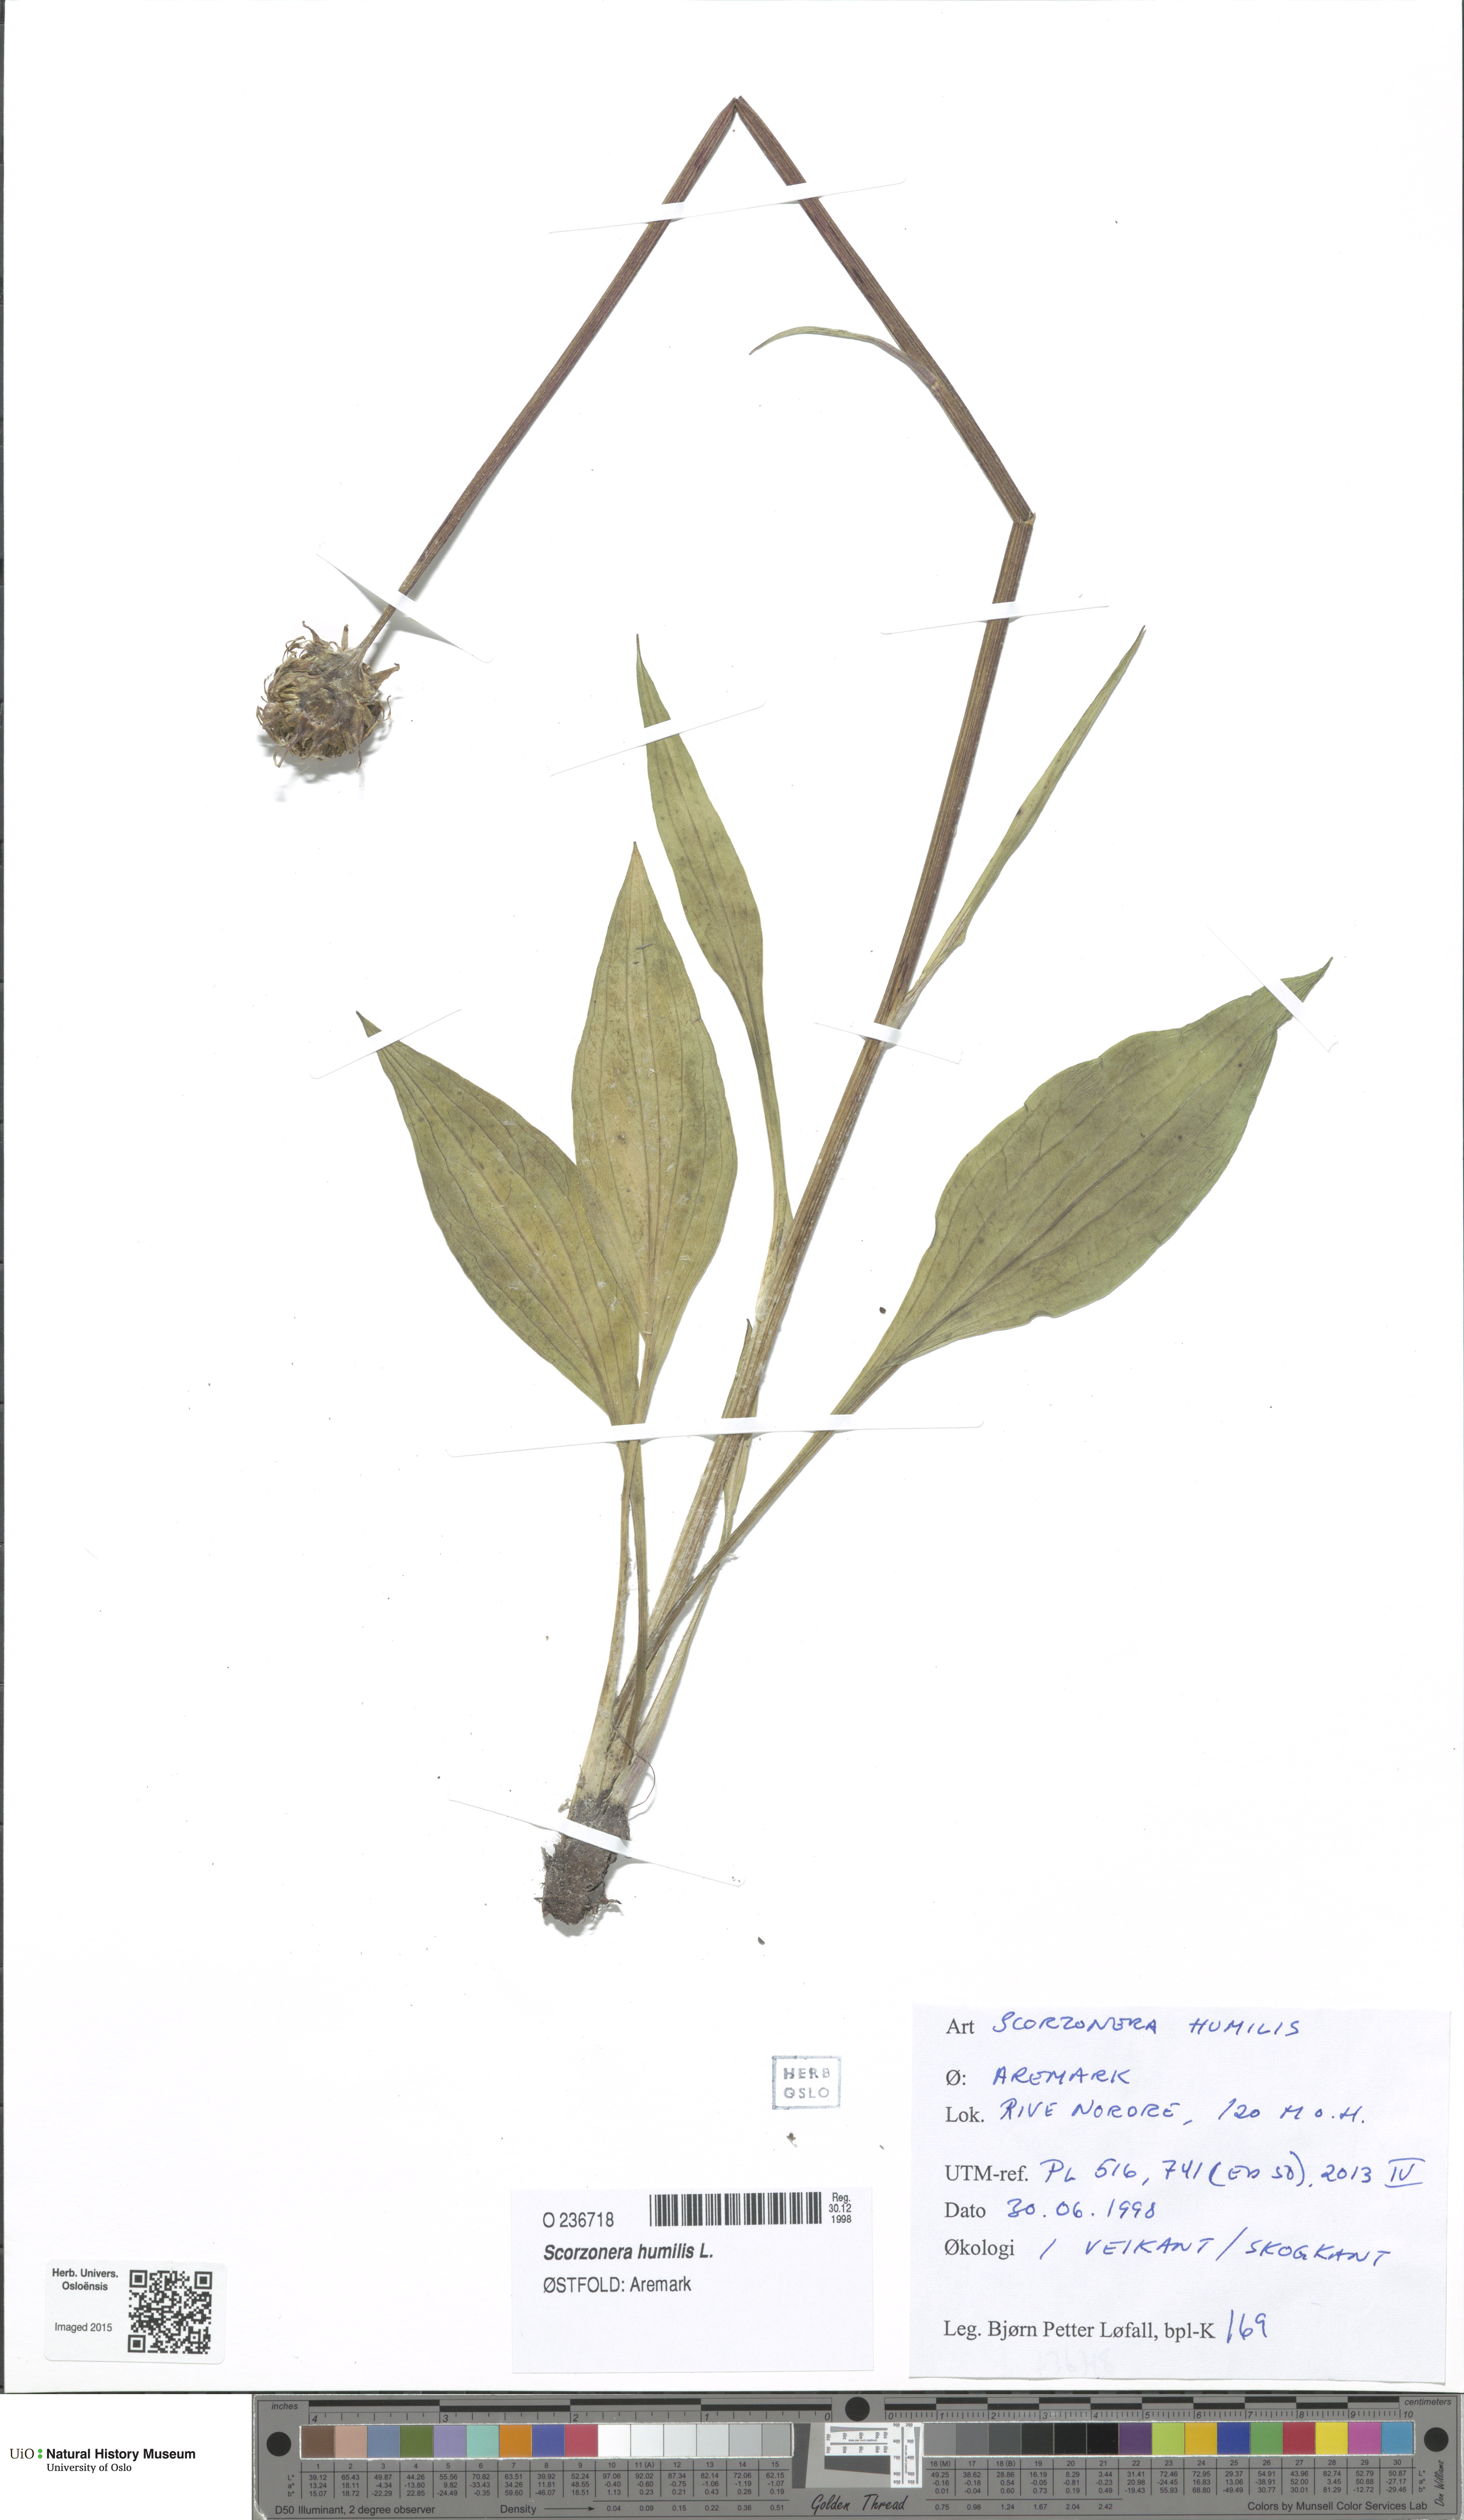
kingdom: Plantae
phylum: Tracheophyta
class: Magnoliopsida
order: Asterales
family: Asteraceae
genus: Scorzonera
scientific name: Scorzonera humilis
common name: Viper's-grass
